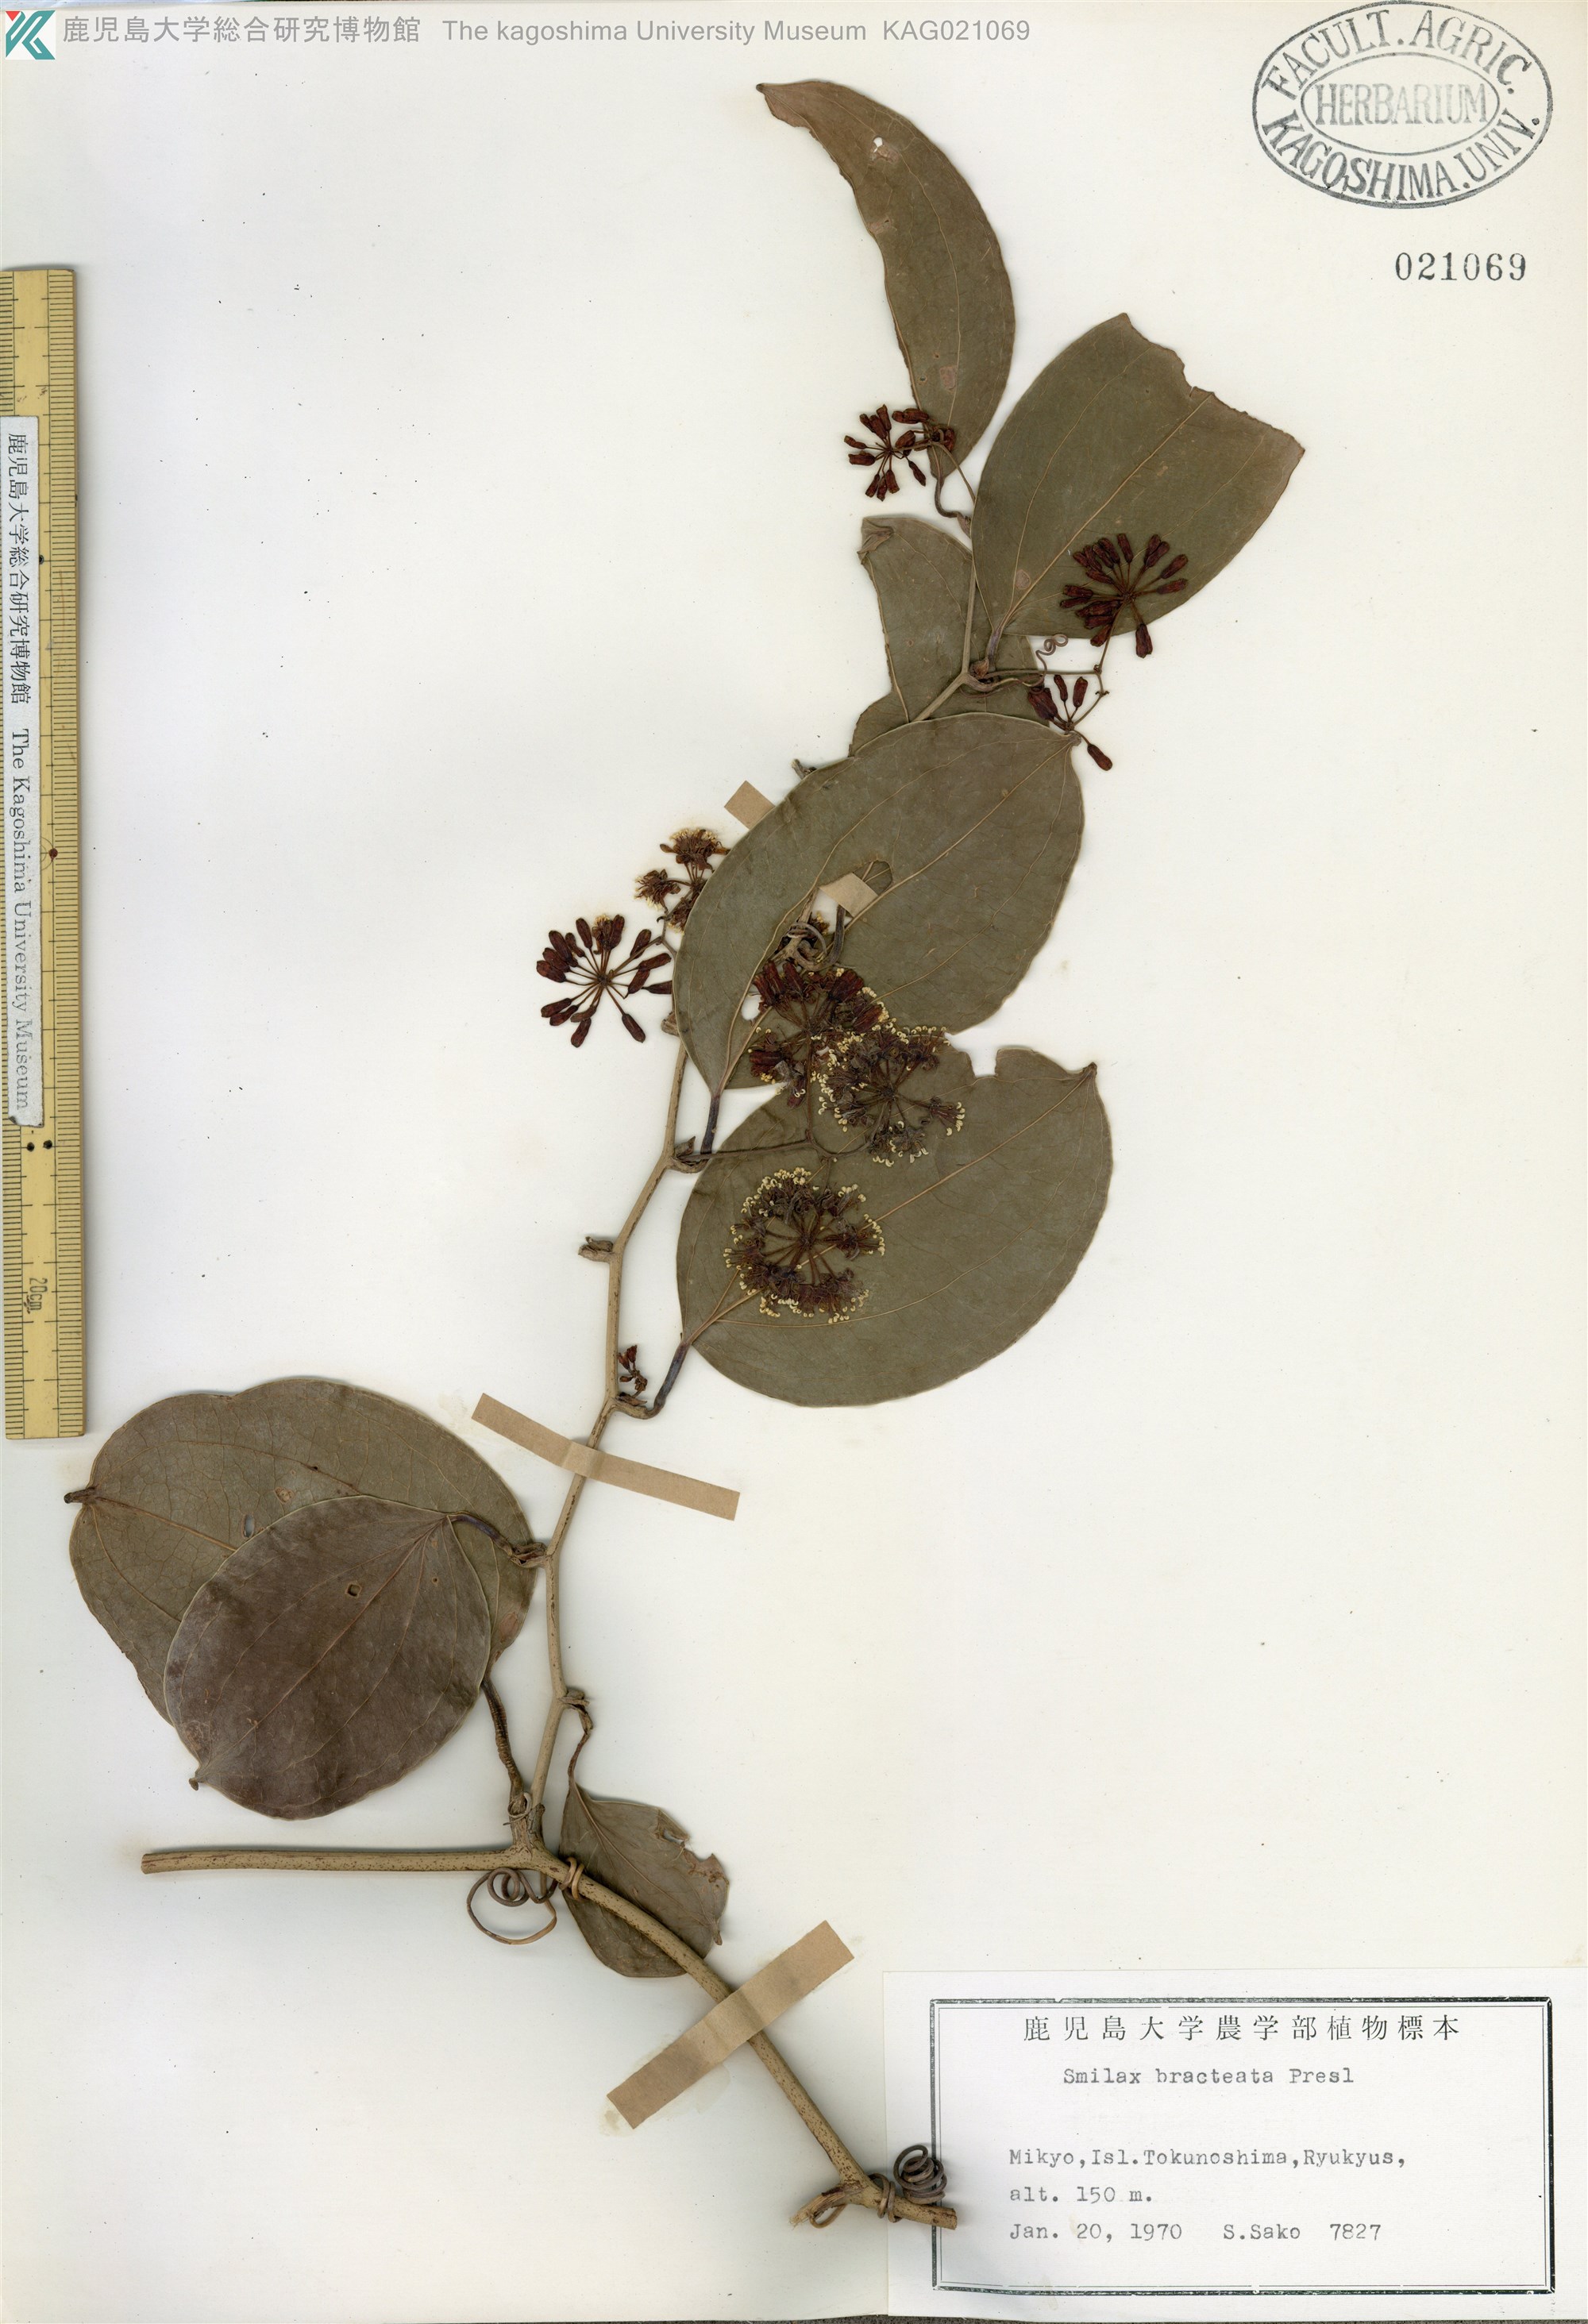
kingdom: Plantae
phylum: Tracheophyta
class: Liliopsida
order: Liliales
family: Smilacaceae
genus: Smilax
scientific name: Smilax bracteata
